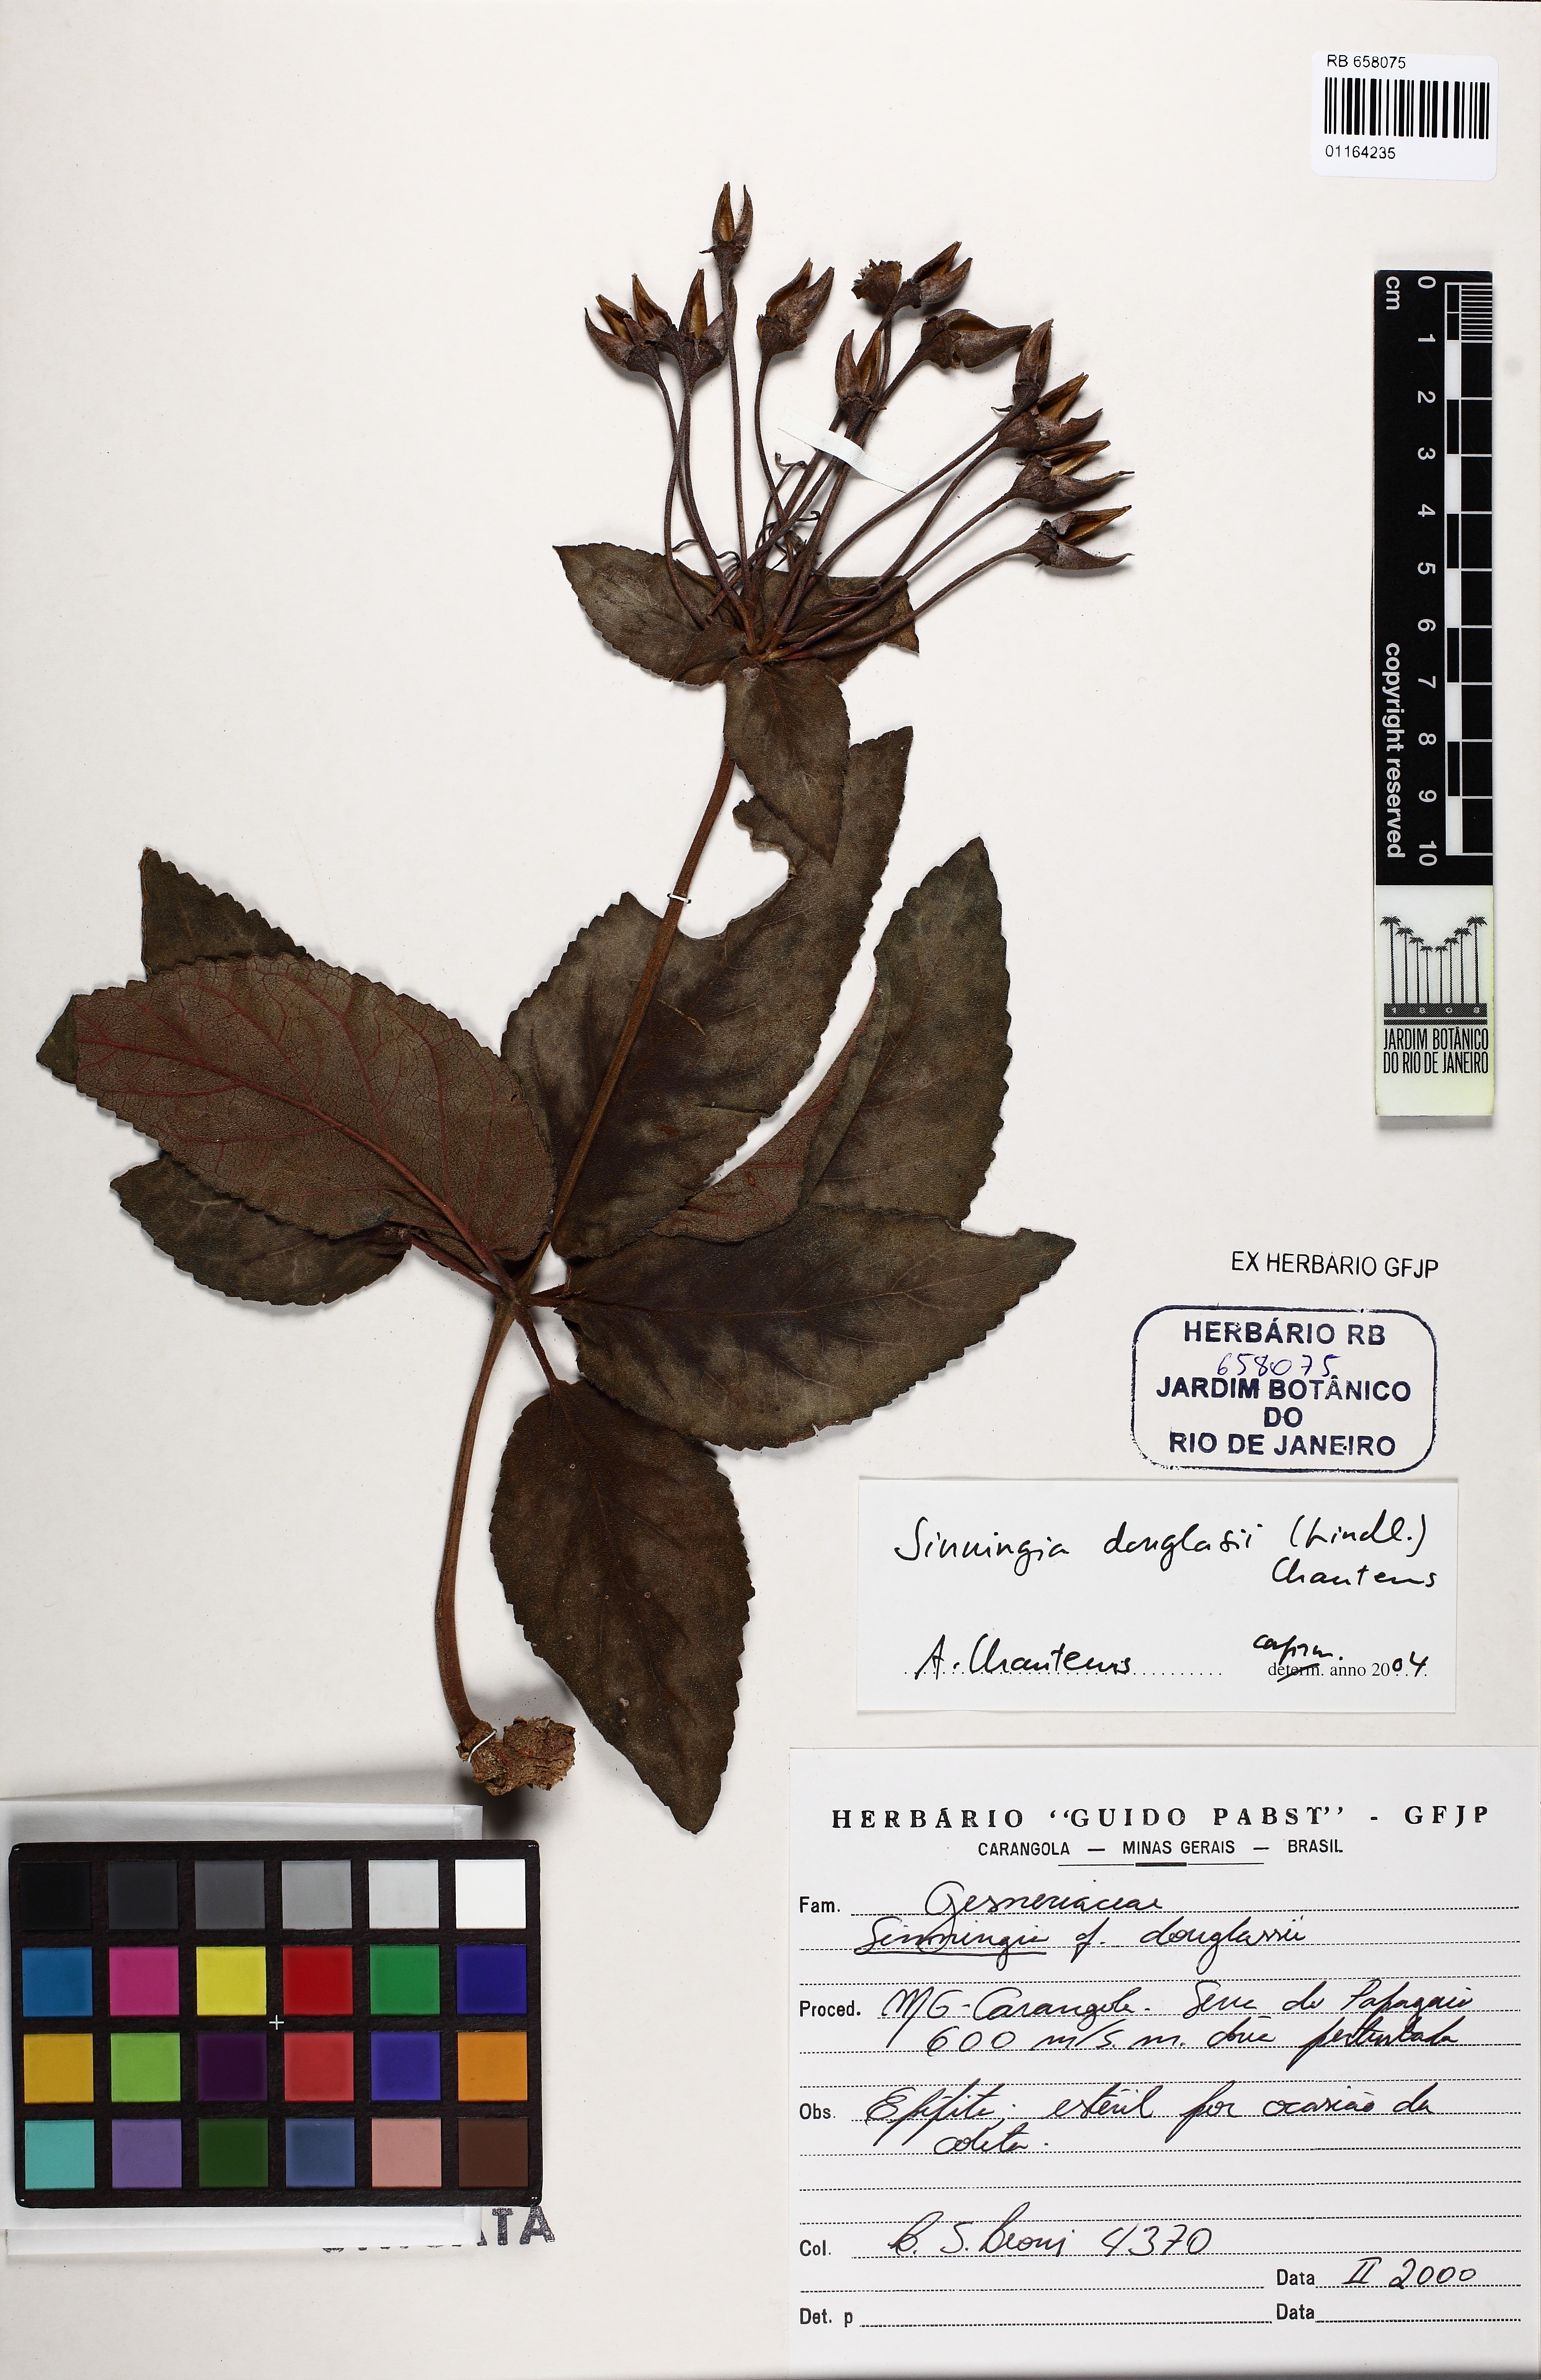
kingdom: Plantae
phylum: Tracheophyta
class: Magnoliopsida
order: Lamiales
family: Gesneriaceae
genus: Sinningia
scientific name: Sinningia douglasii
